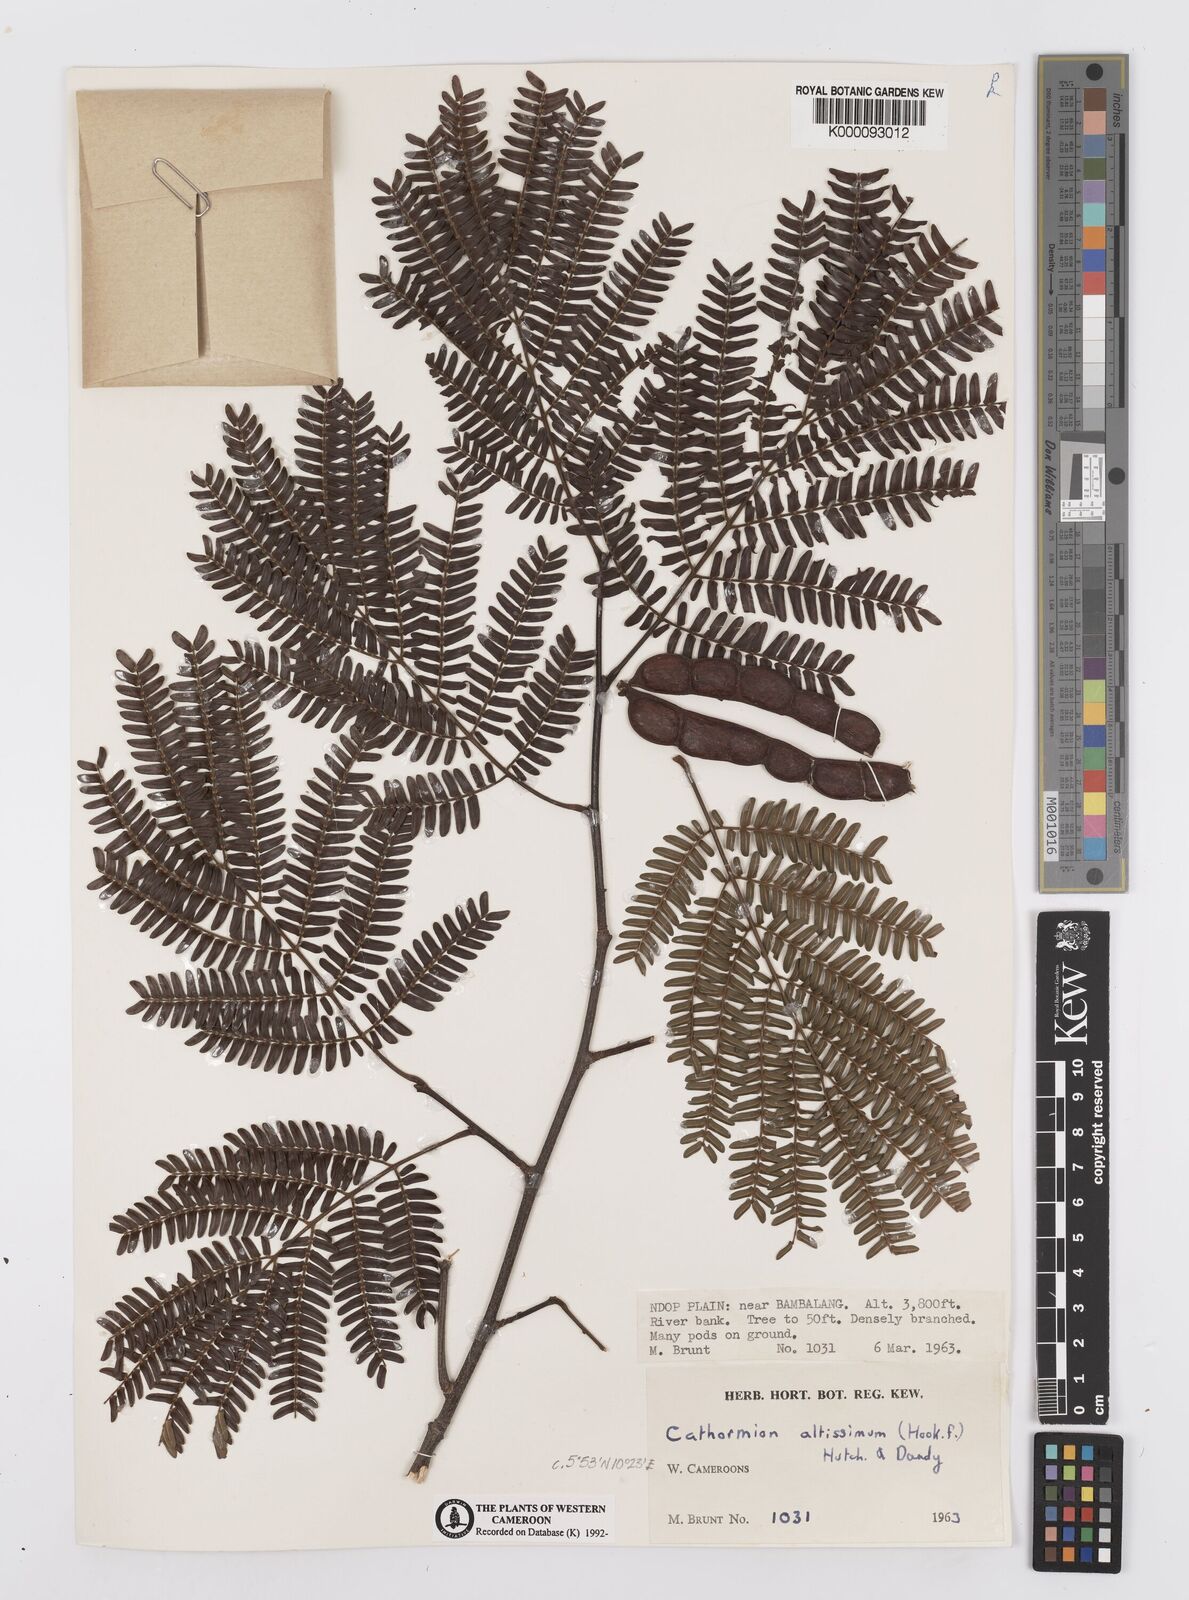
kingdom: Plantae
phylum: Tracheophyta
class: Magnoliopsida
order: Fabales
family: Fabaceae
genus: Albizia
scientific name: Albizia altissima
